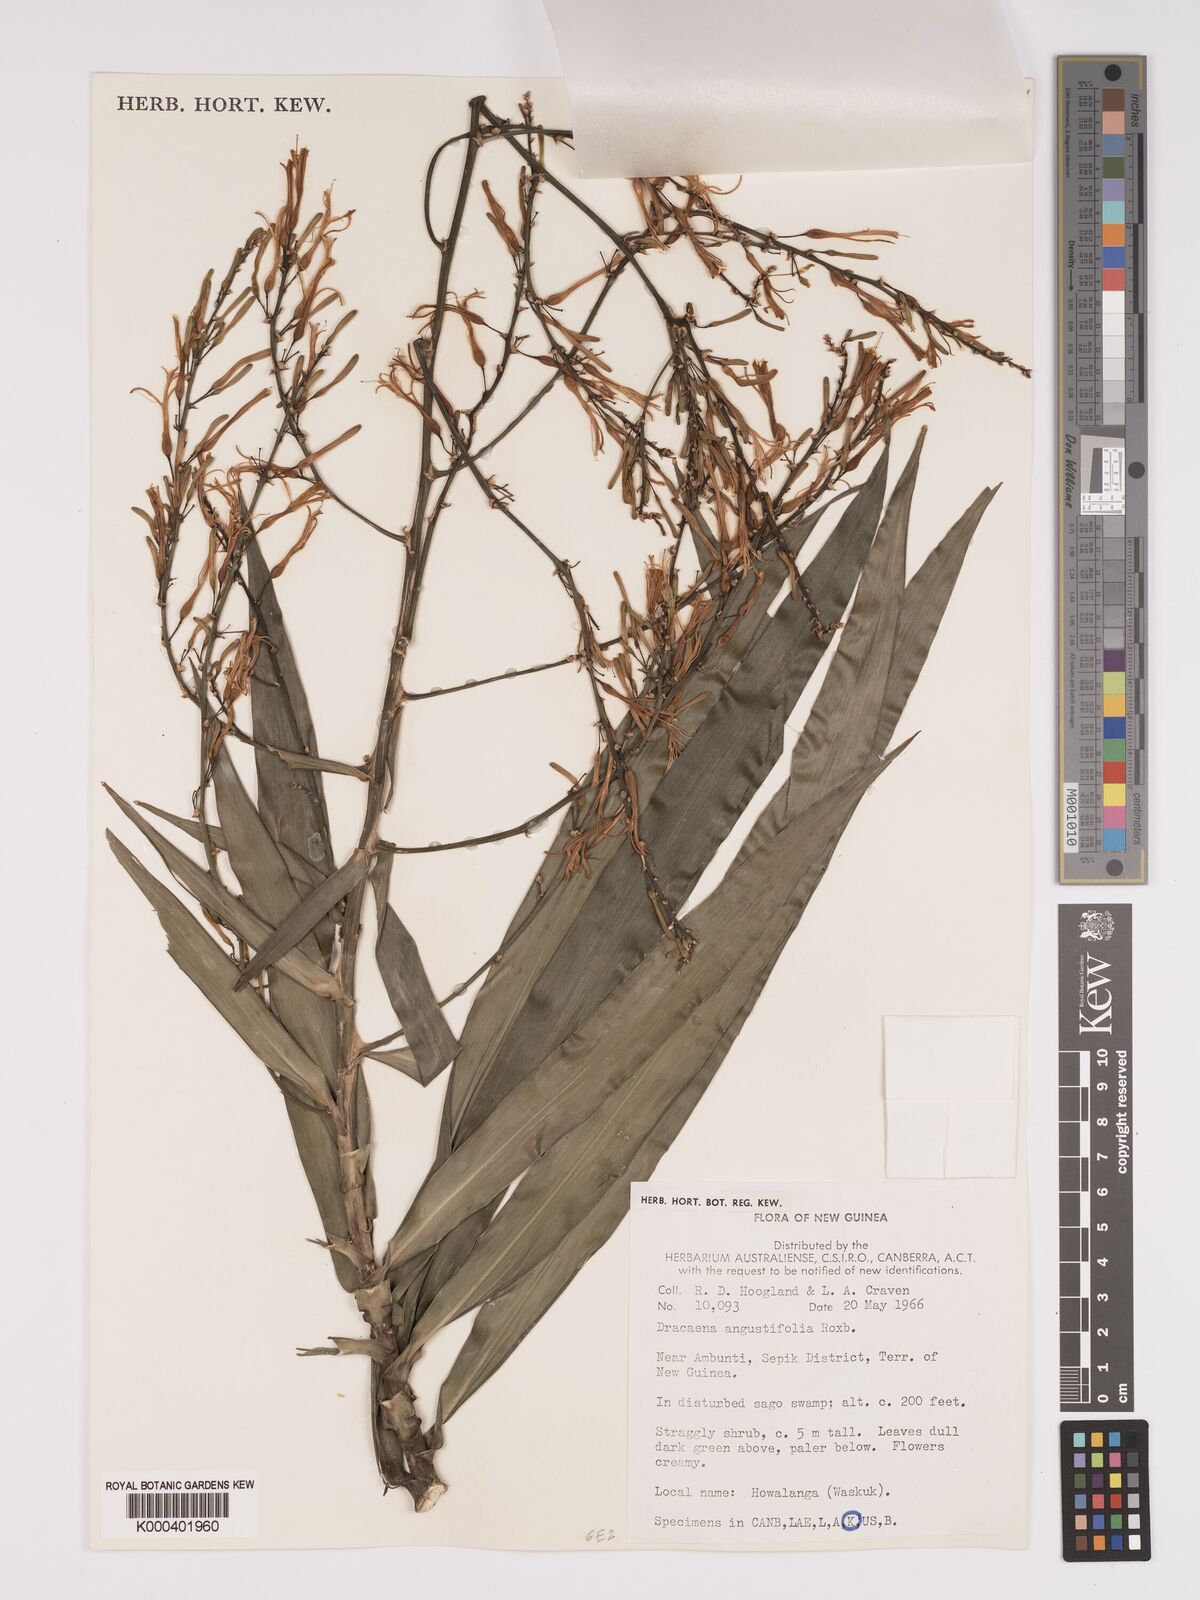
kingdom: Plantae
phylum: Tracheophyta
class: Liliopsida
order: Asparagales
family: Asparagaceae
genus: Dracaena
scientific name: Dracaena angustifolia
